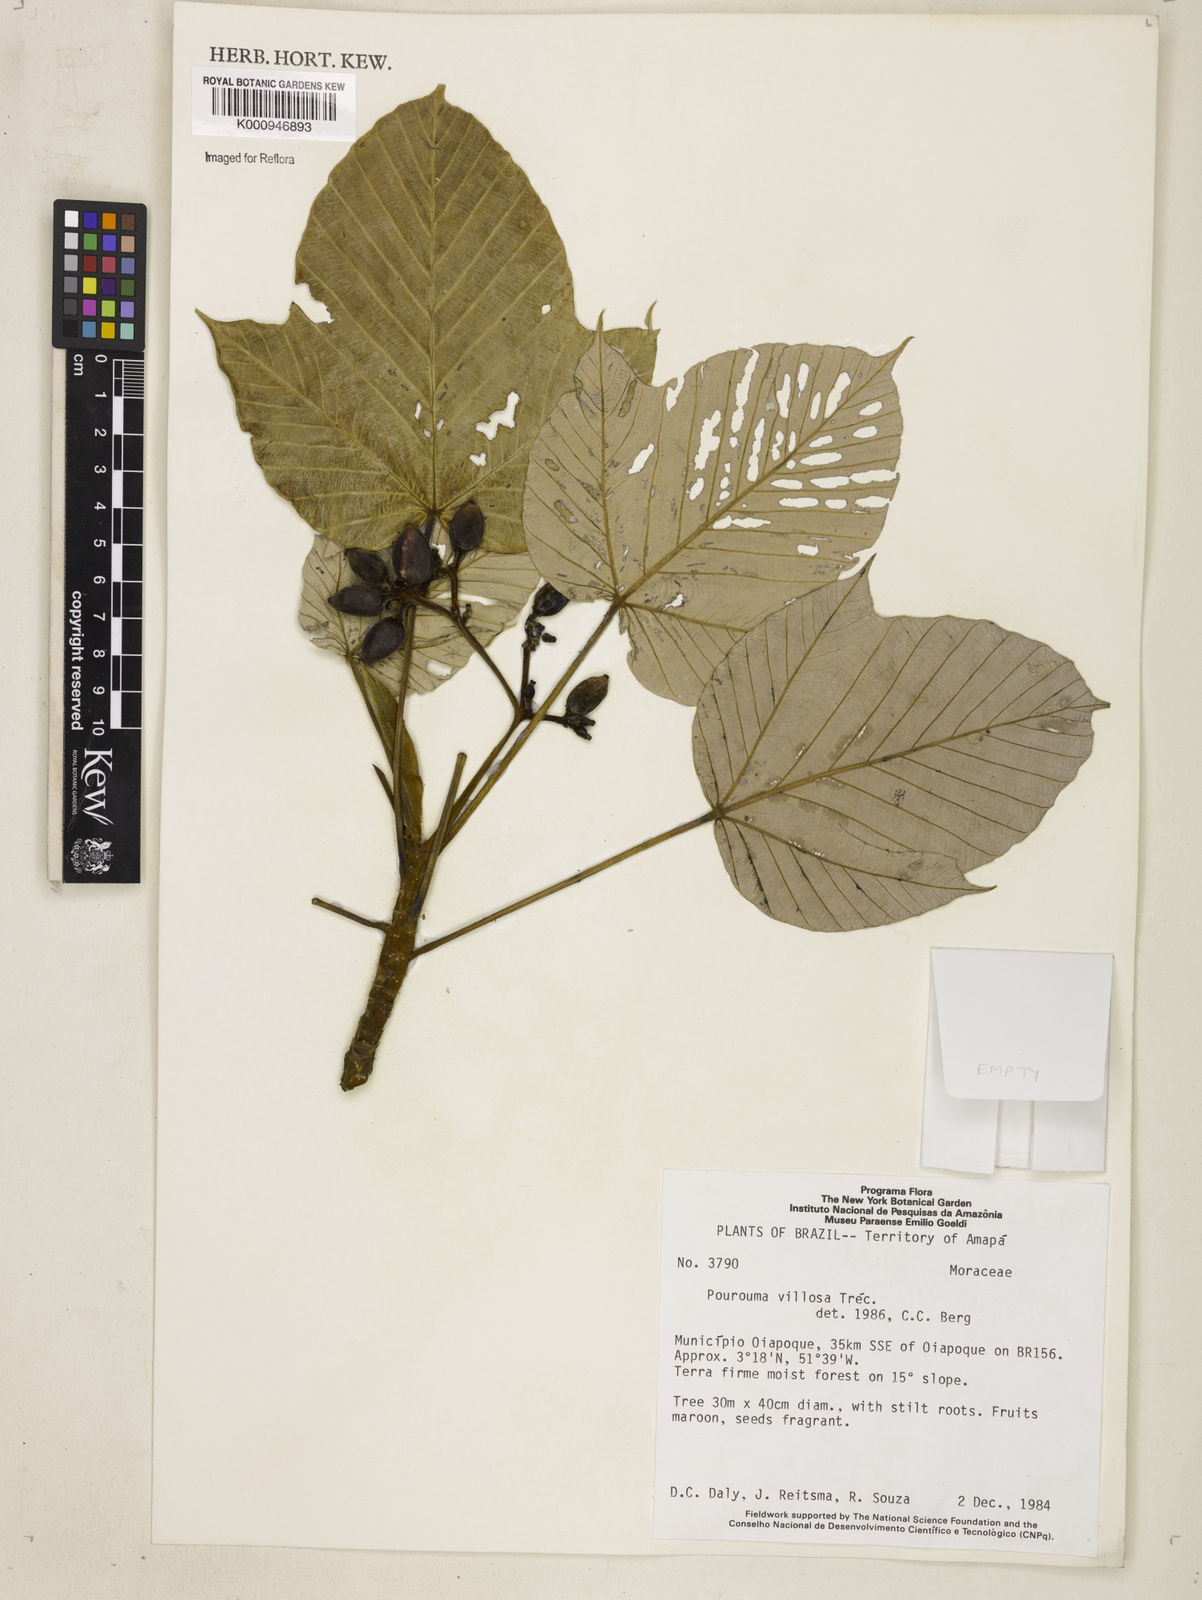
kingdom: Plantae
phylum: Tracheophyta
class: Magnoliopsida
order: Rosales
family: Urticaceae
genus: Pourouma
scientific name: Pourouma
